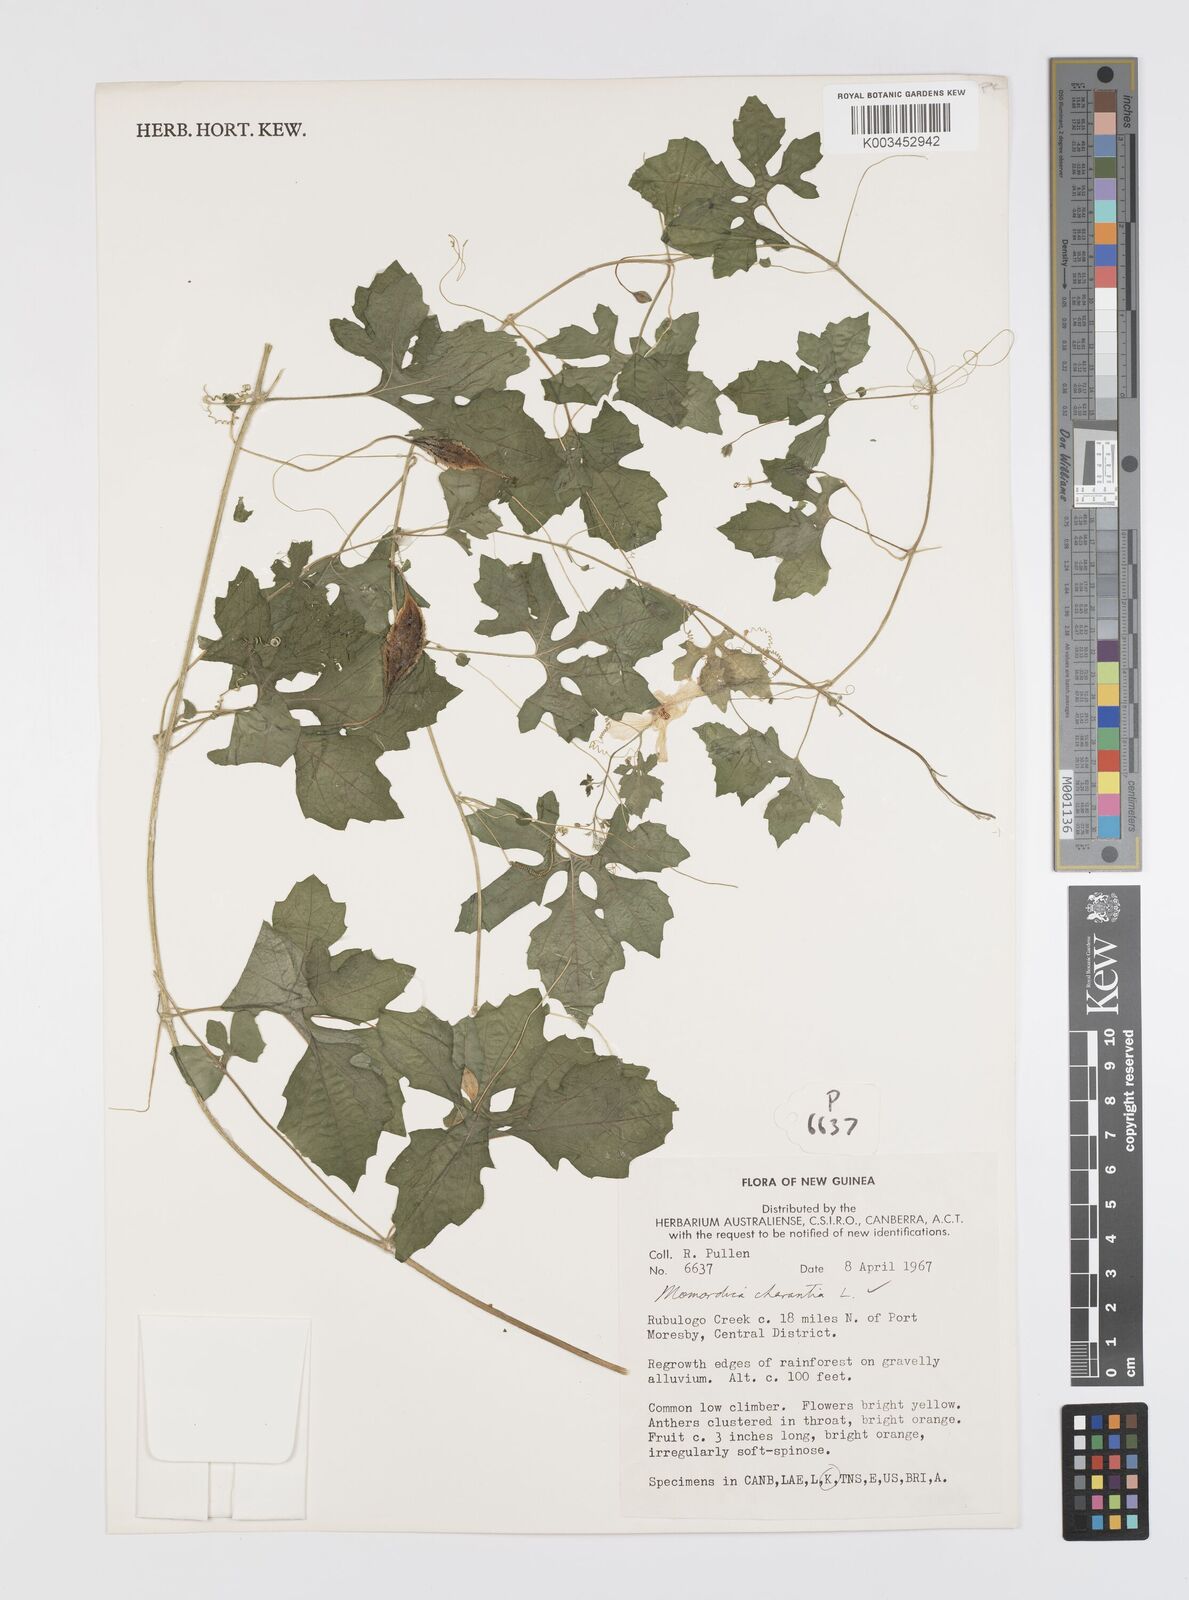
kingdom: Plantae
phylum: Tracheophyta
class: Magnoliopsida
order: Cucurbitales
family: Cucurbitaceae
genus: Momordica
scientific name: Momordica charantia
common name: Balsampear
